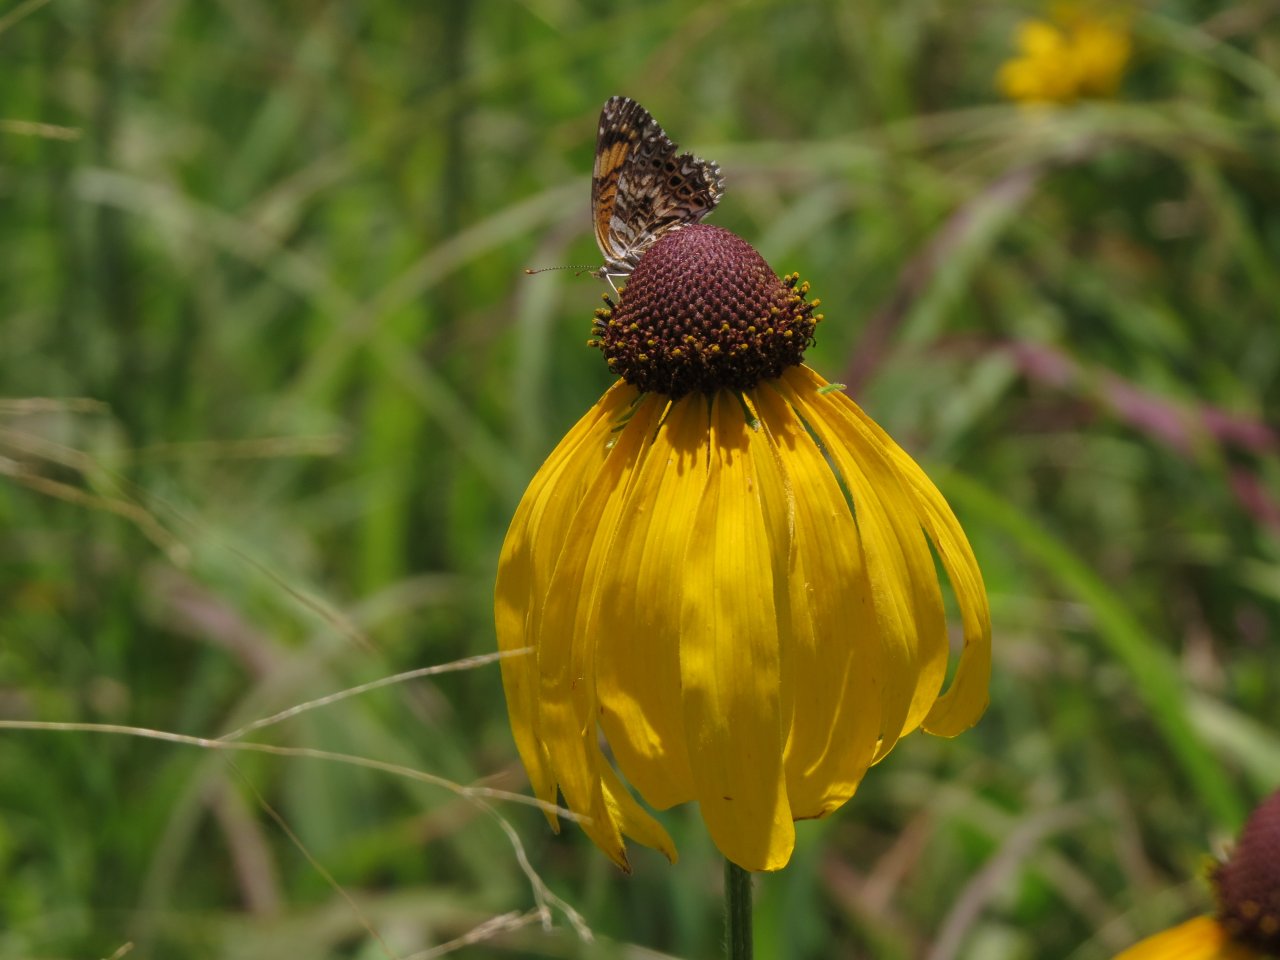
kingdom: Animalia
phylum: Arthropoda
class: Insecta
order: Lepidoptera
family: Nymphalidae
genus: Chlosyne
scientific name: Chlosyne gorgone
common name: Gorgone Checkerspot
